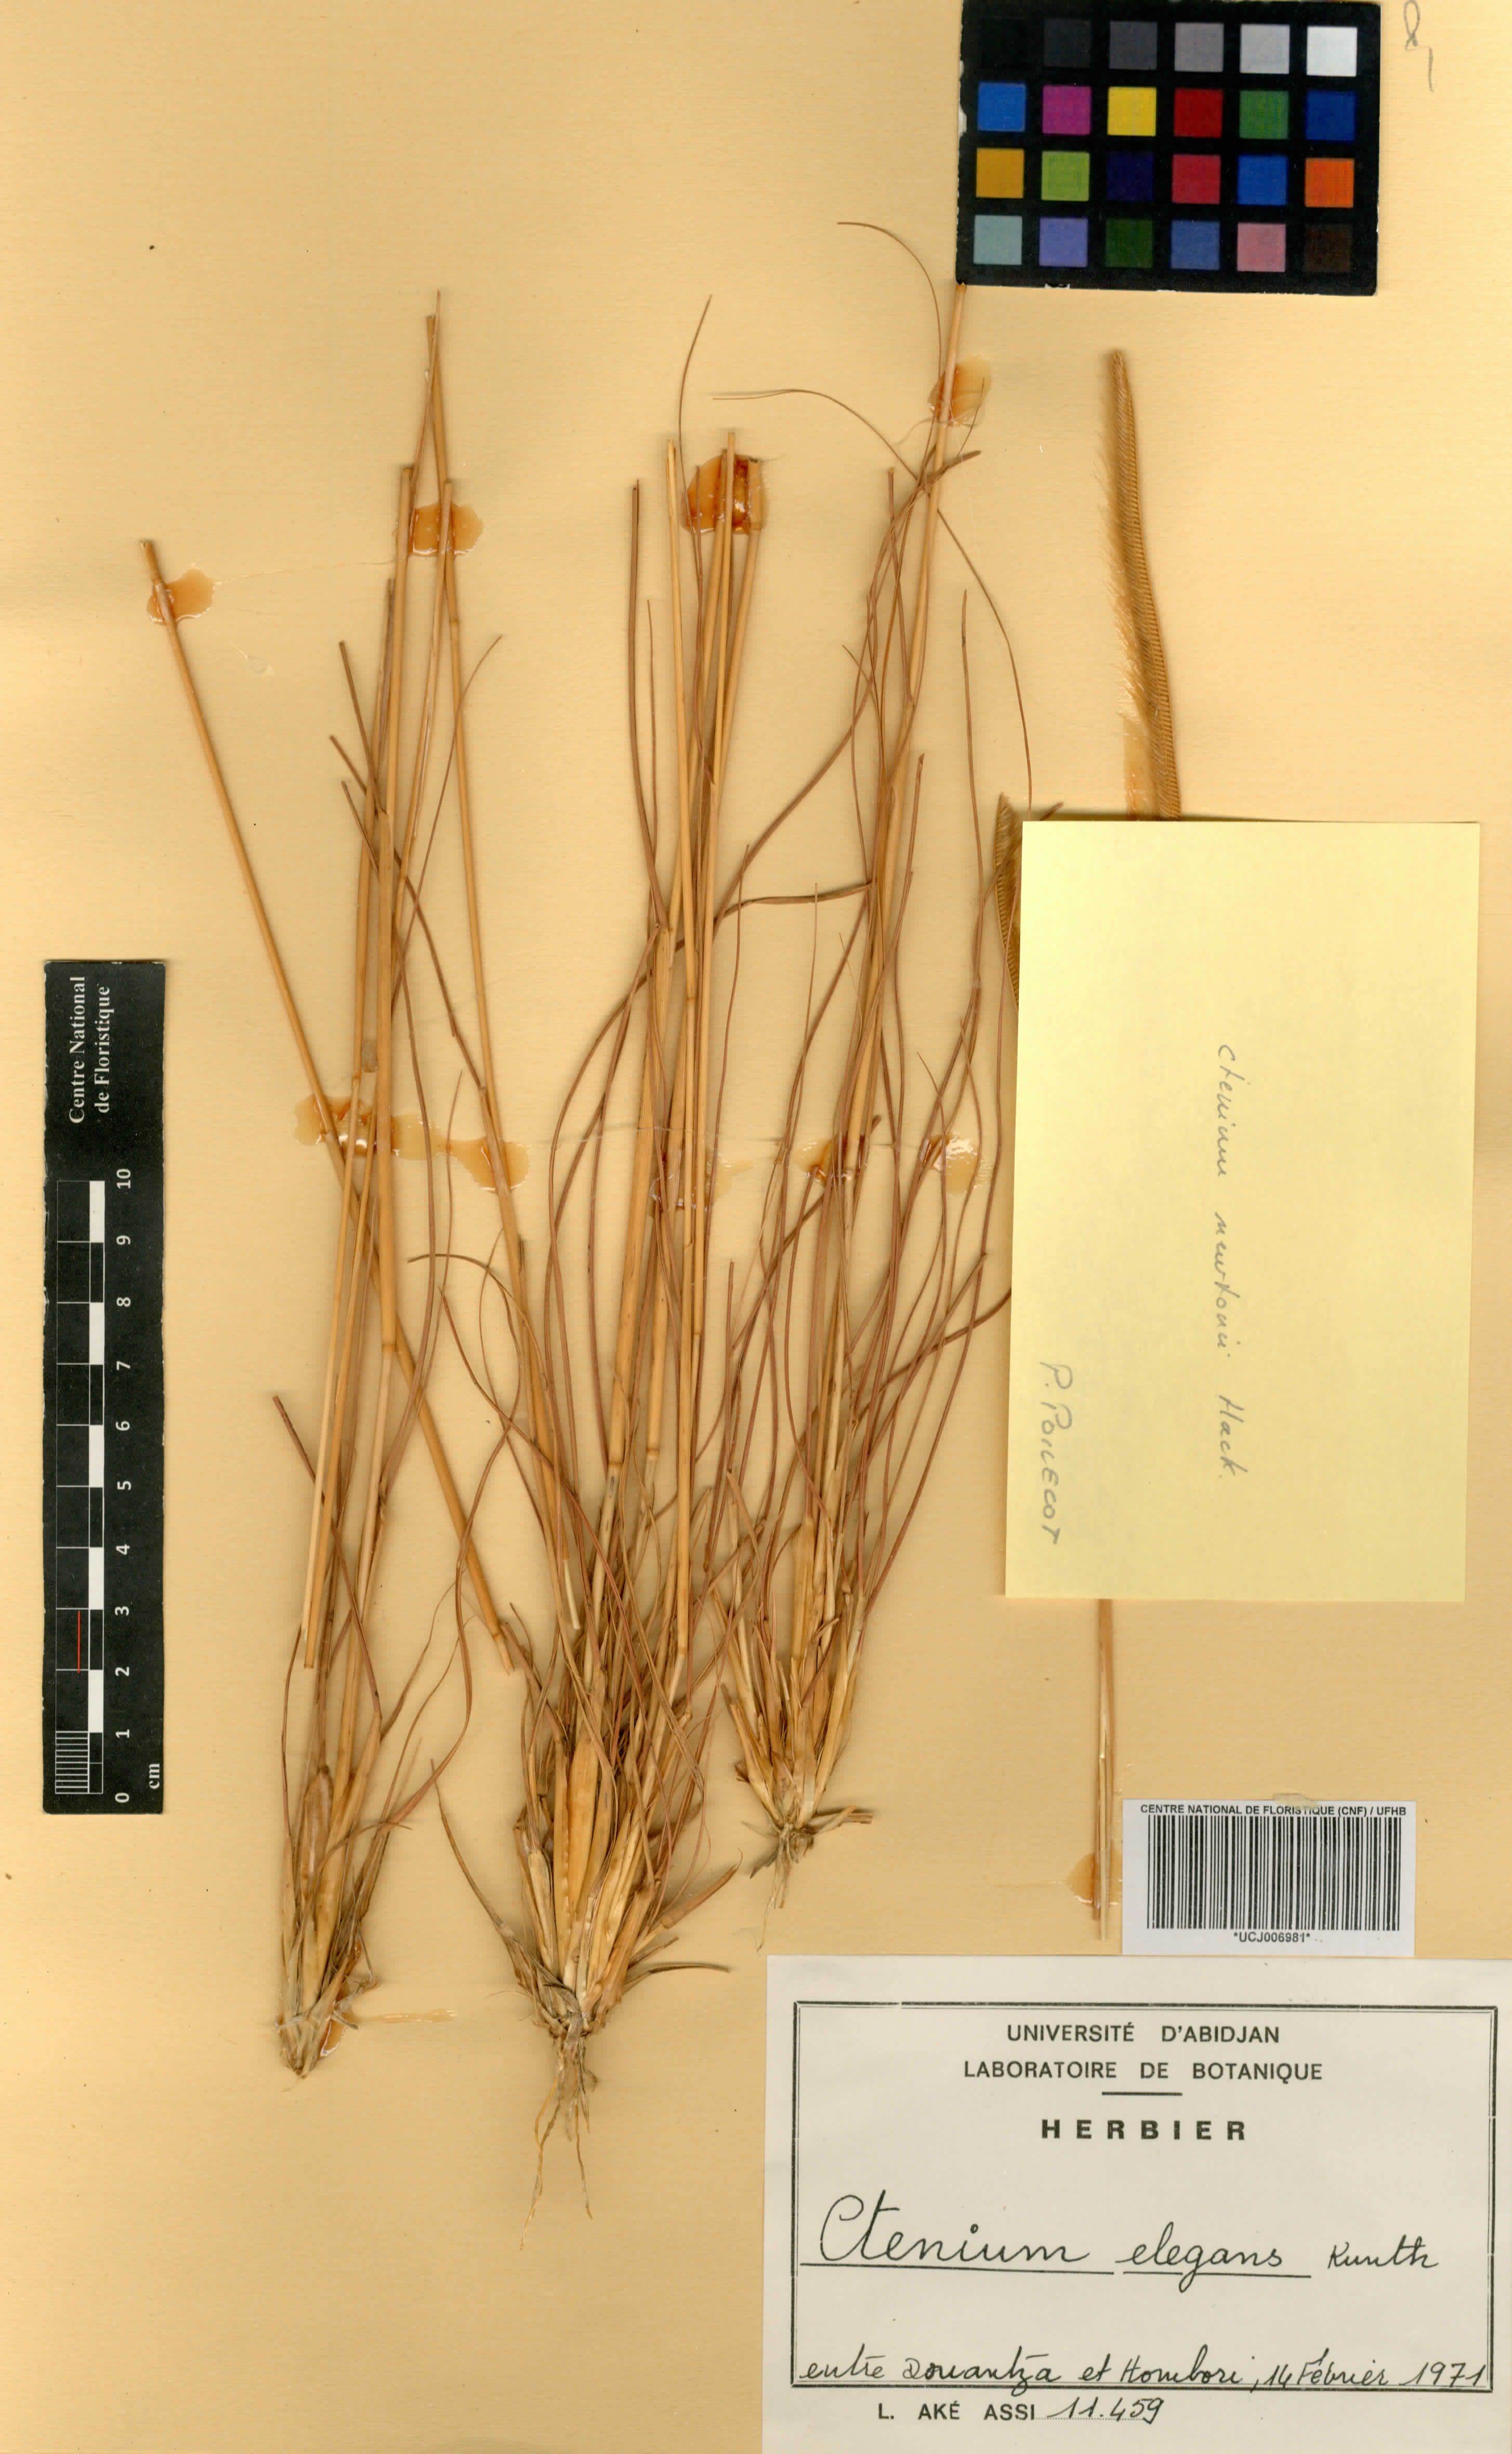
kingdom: Plantae
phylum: Tracheophyta
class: Liliopsida
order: Poales
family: Poaceae
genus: Ctenium
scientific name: Ctenium elegans
